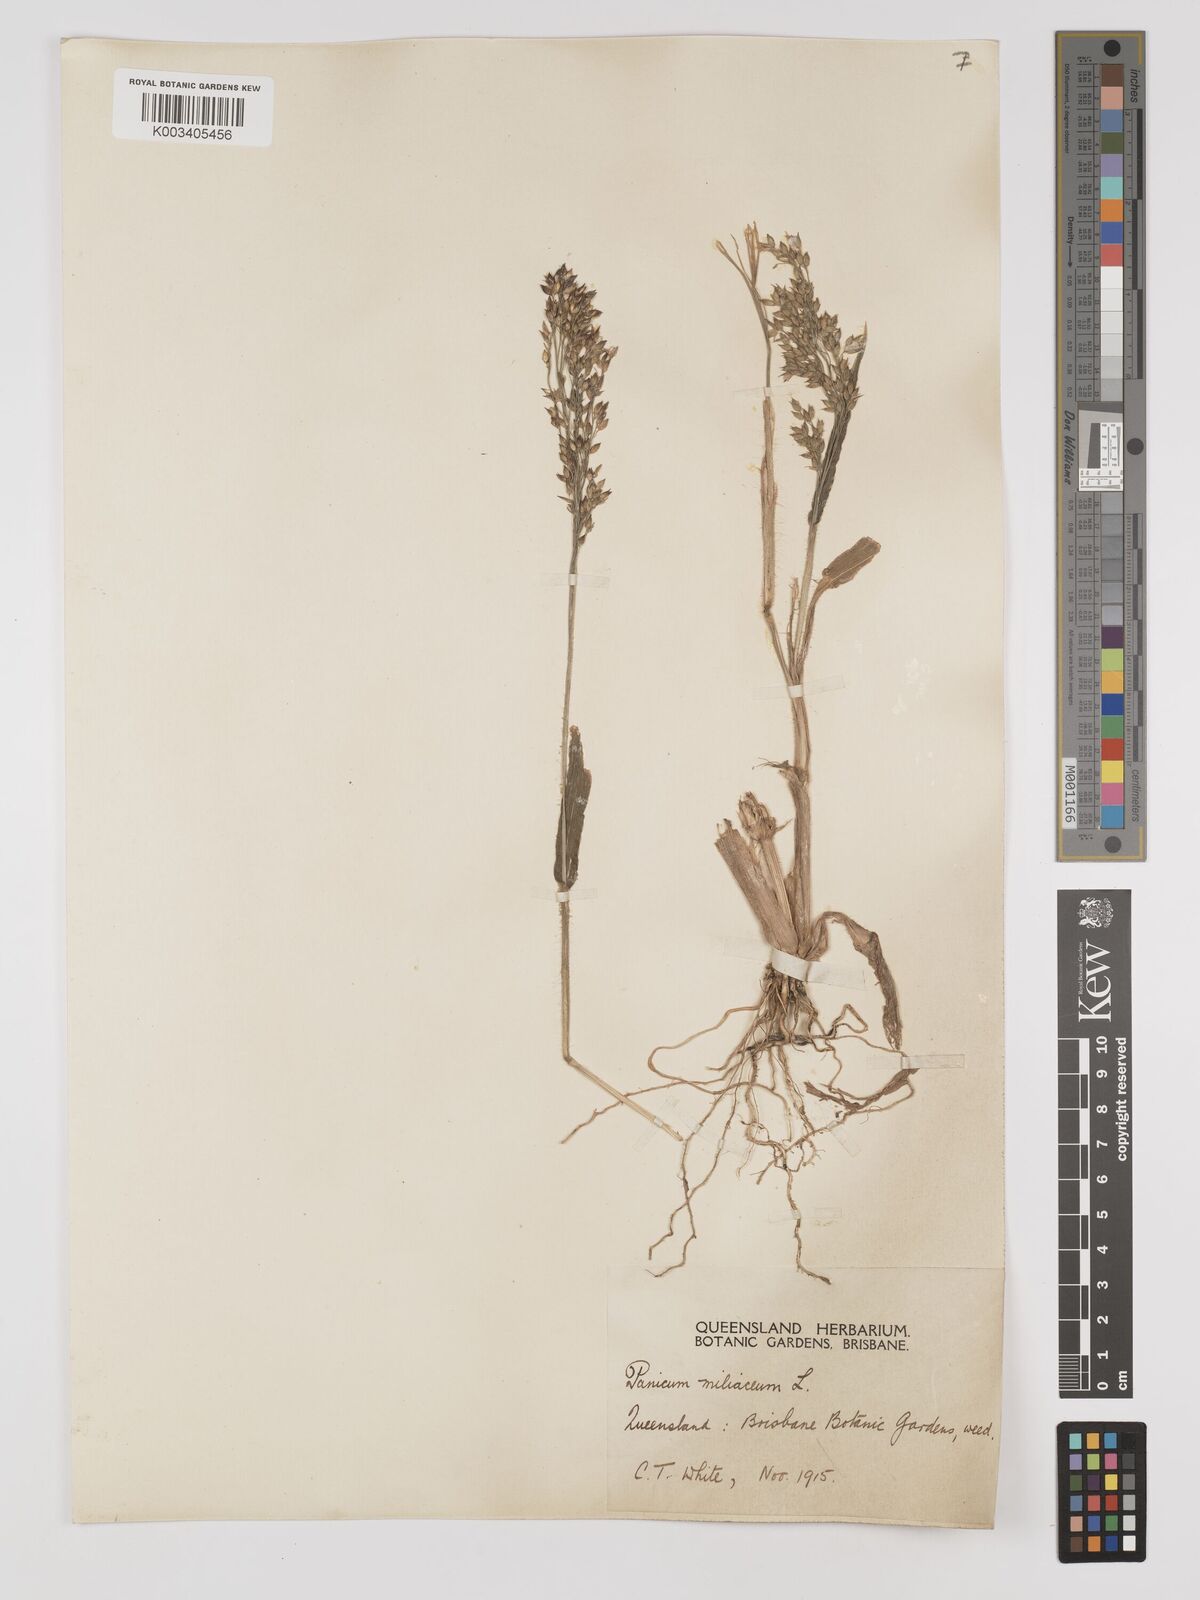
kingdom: Plantae
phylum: Tracheophyta
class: Liliopsida
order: Poales
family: Poaceae
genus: Panicum
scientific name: Panicum miliaceum
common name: Common millet
